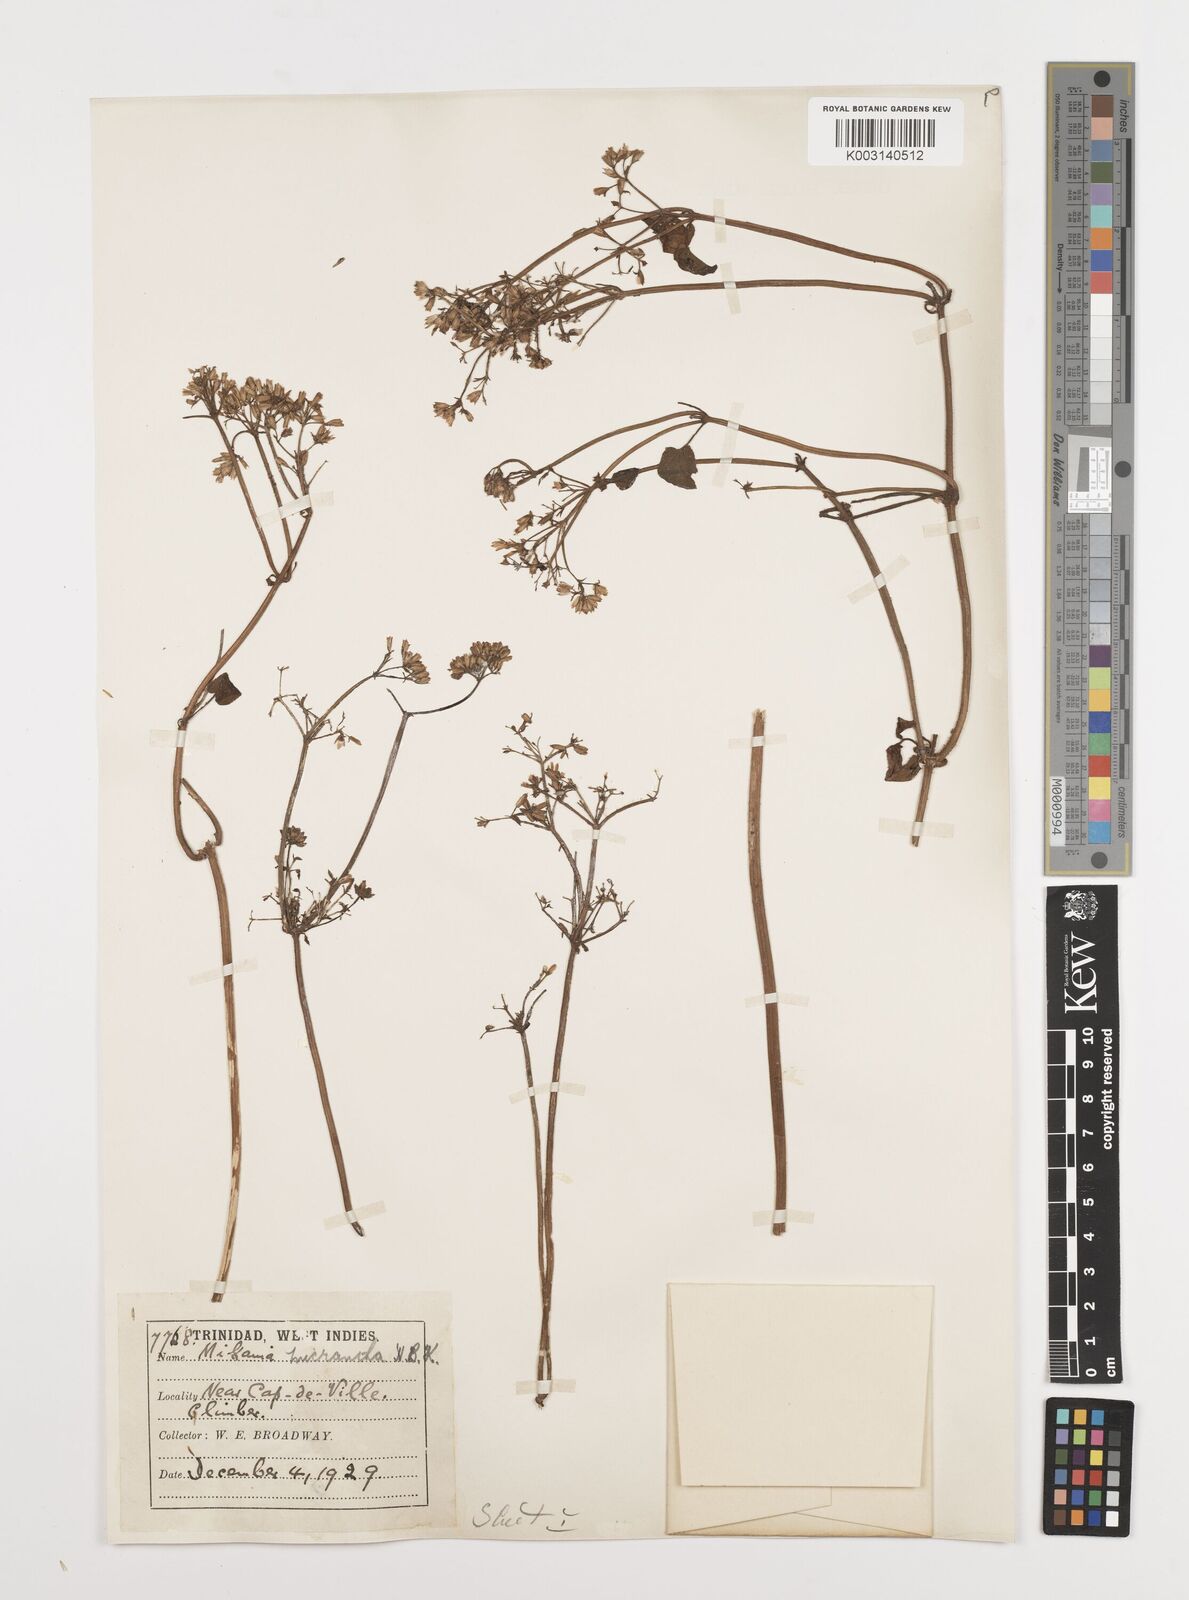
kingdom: Plantae
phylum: Tracheophyta
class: Magnoliopsida
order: Asterales
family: Asteraceae
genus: Mikania
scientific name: Mikania micrantha
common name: Mile-a-minute
